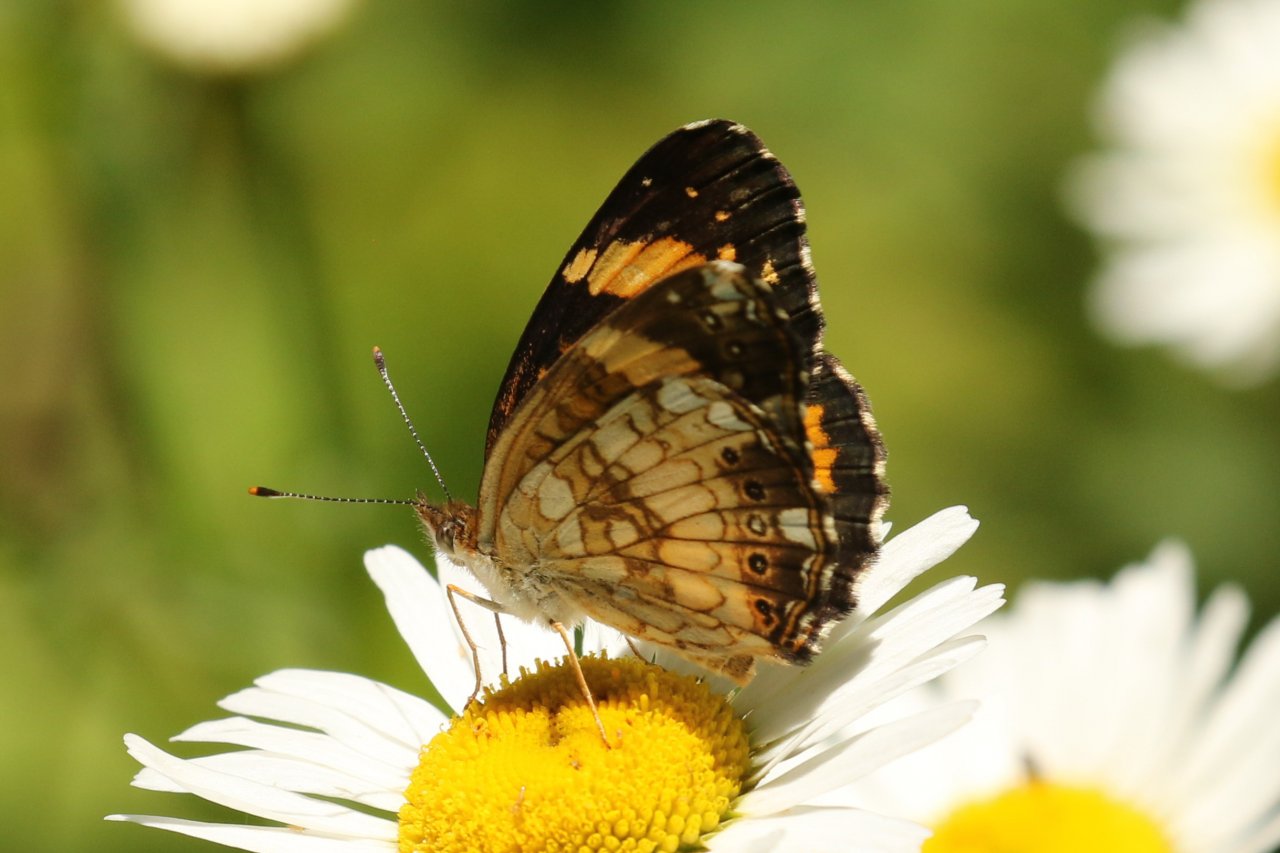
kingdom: Animalia
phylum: Arthropoda
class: Insecta
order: Lepidoptera
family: Nymphalidae
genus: Chlosyne
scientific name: Chlosyne nycteis
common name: Silvery Checkerspot
